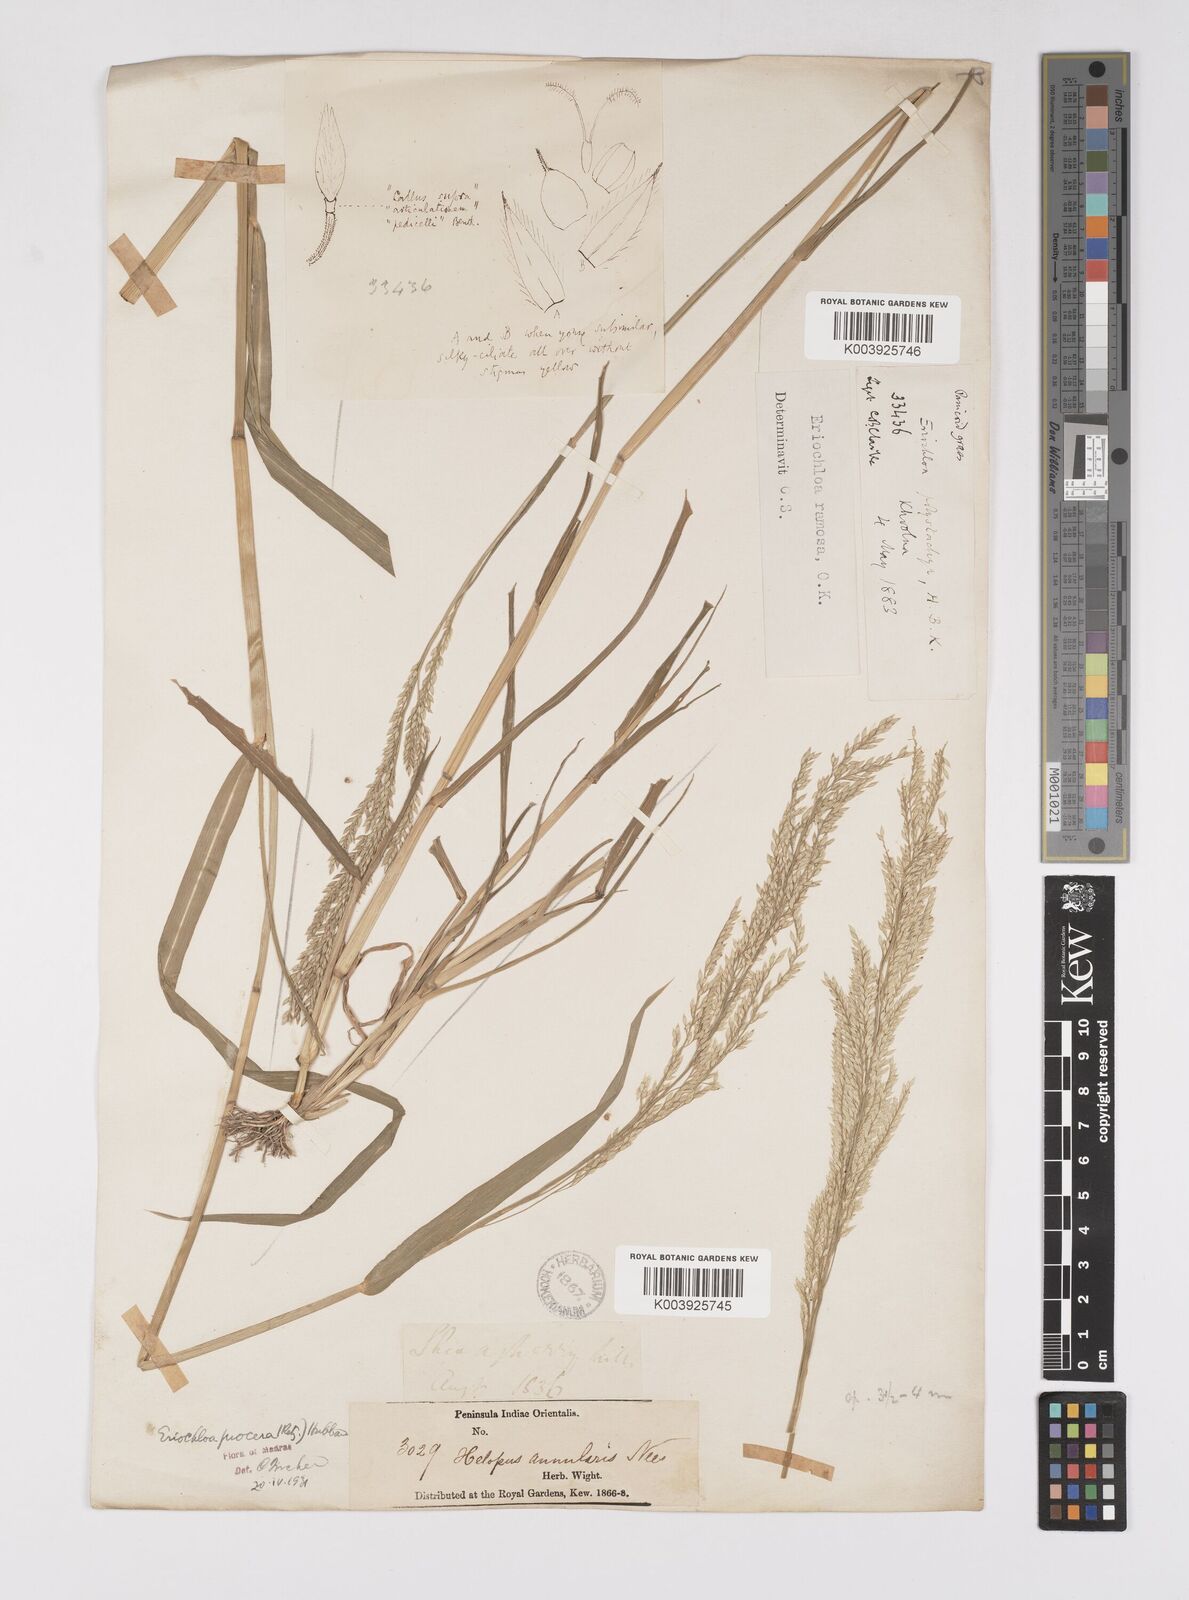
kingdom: Plantae
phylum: Tracheophyta
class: Liliopsida
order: Poales
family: Poaceae
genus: Eriochloa
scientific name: Eriochloa procera
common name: Spring grass
